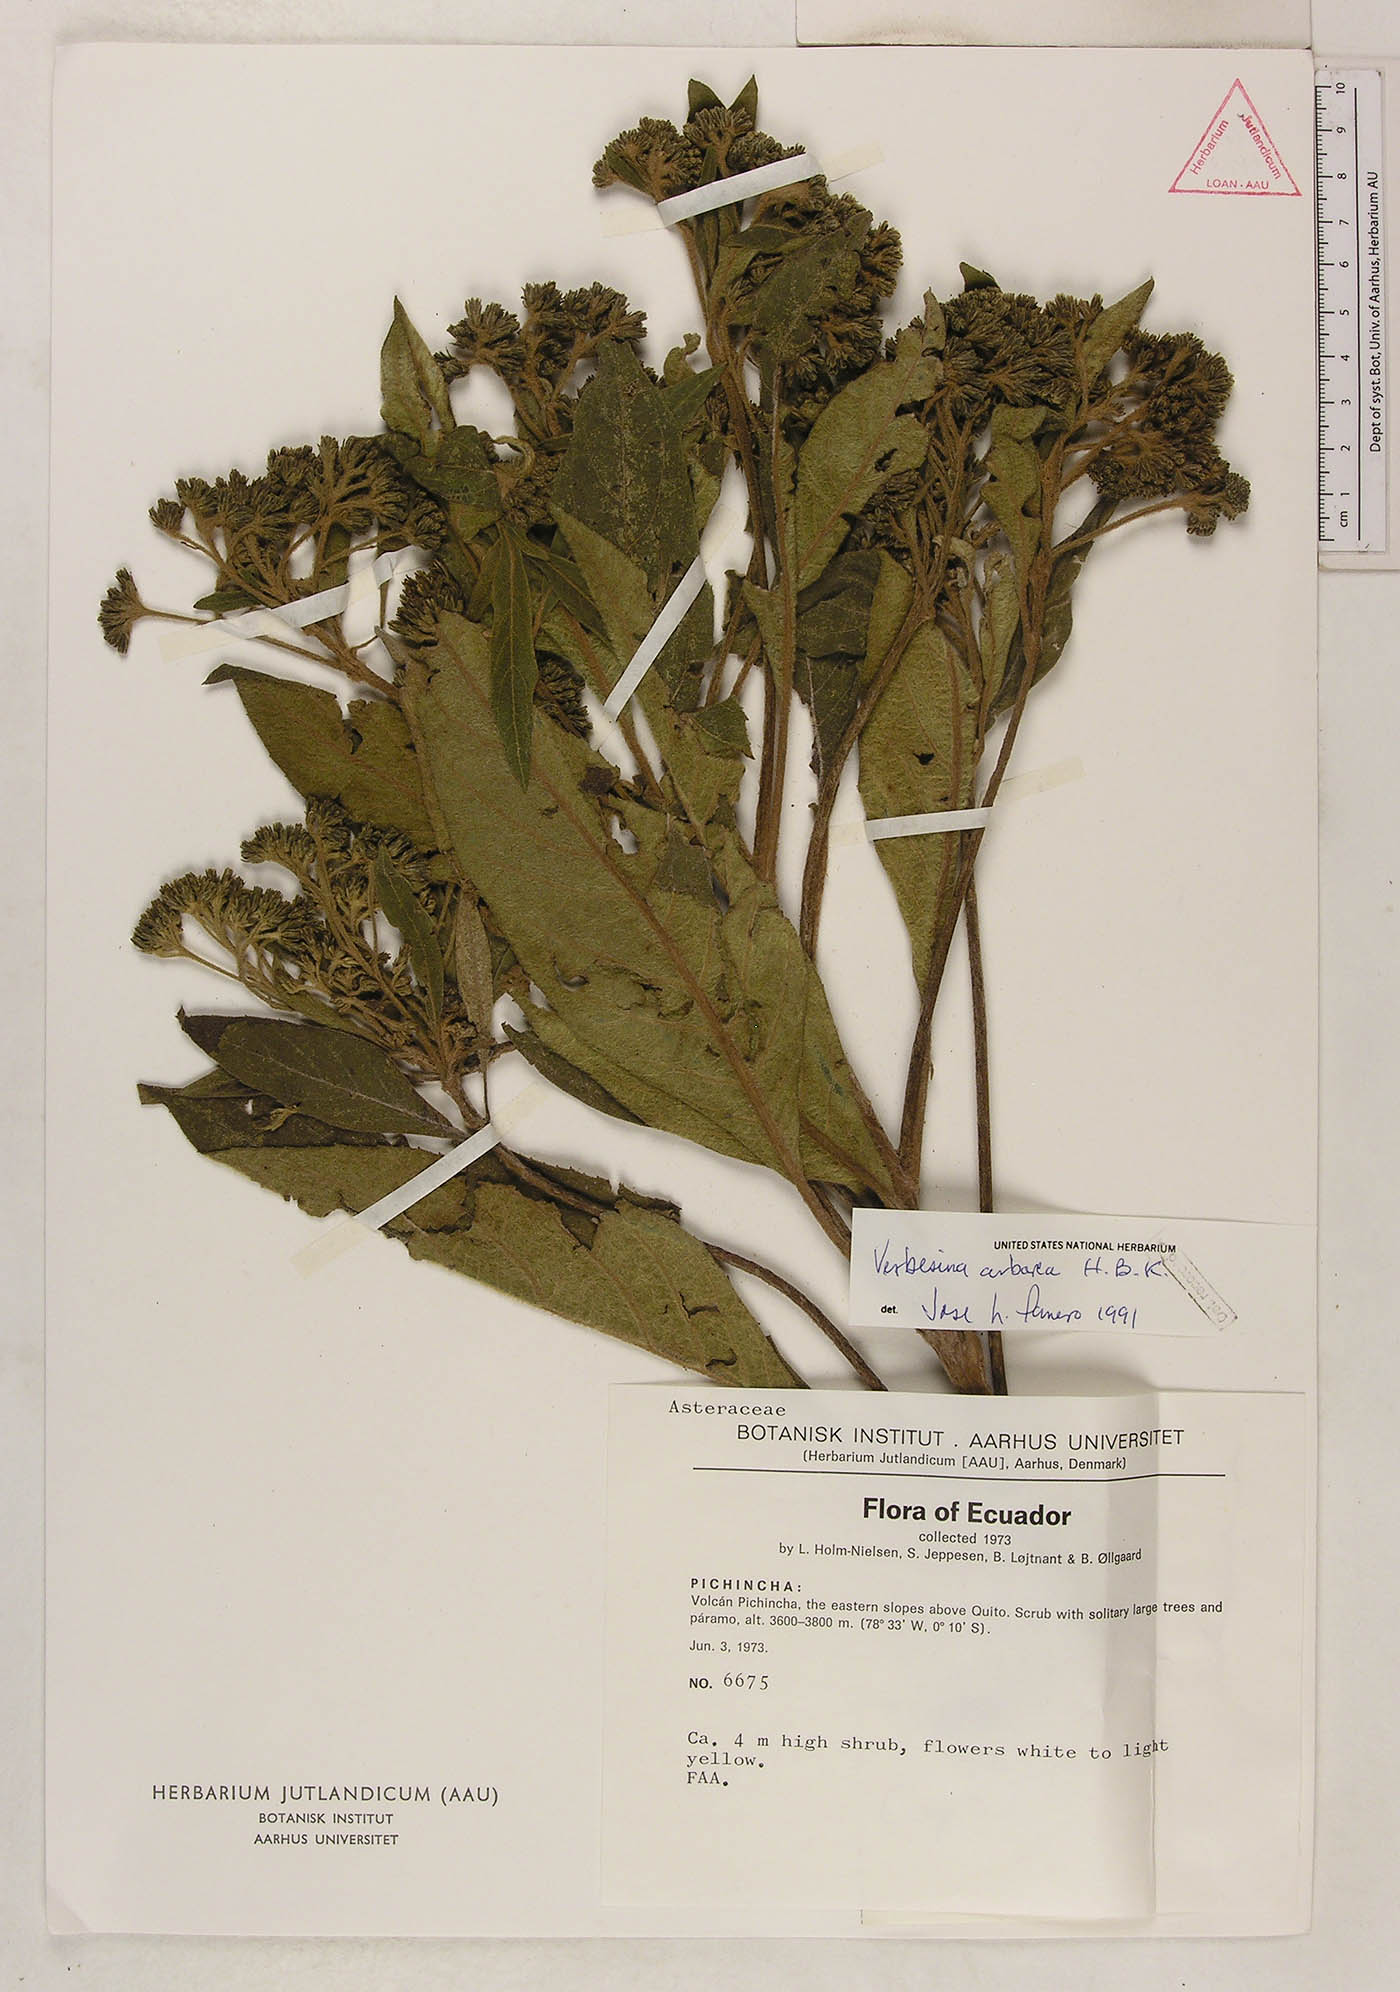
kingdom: Plantae
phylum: Tracheophyta
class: Magnoliopsida
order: Asterales
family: Asteraceae
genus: Verbesina
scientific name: Verbesina arborea
